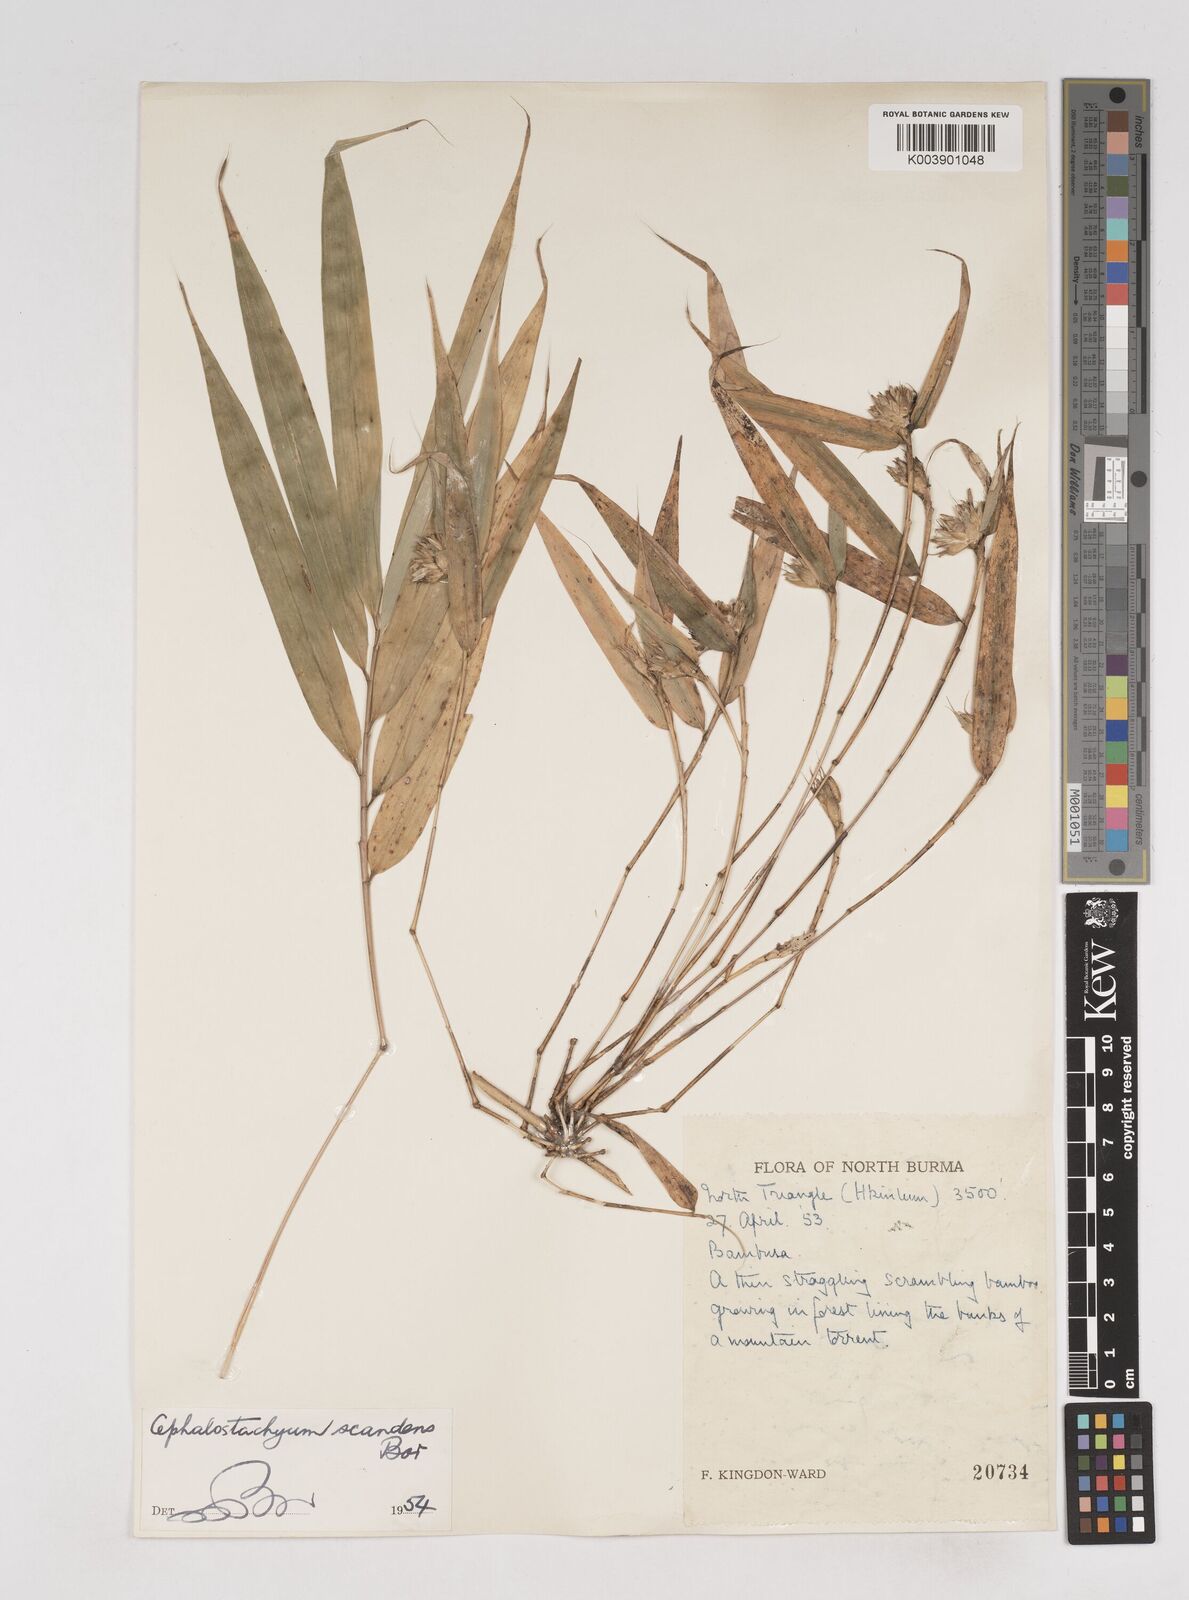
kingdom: Plantae
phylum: Tracheophyta
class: Liliopsida
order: Poales
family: Poaceae
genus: Cephalostachyum
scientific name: Cephalostachyum scandens
